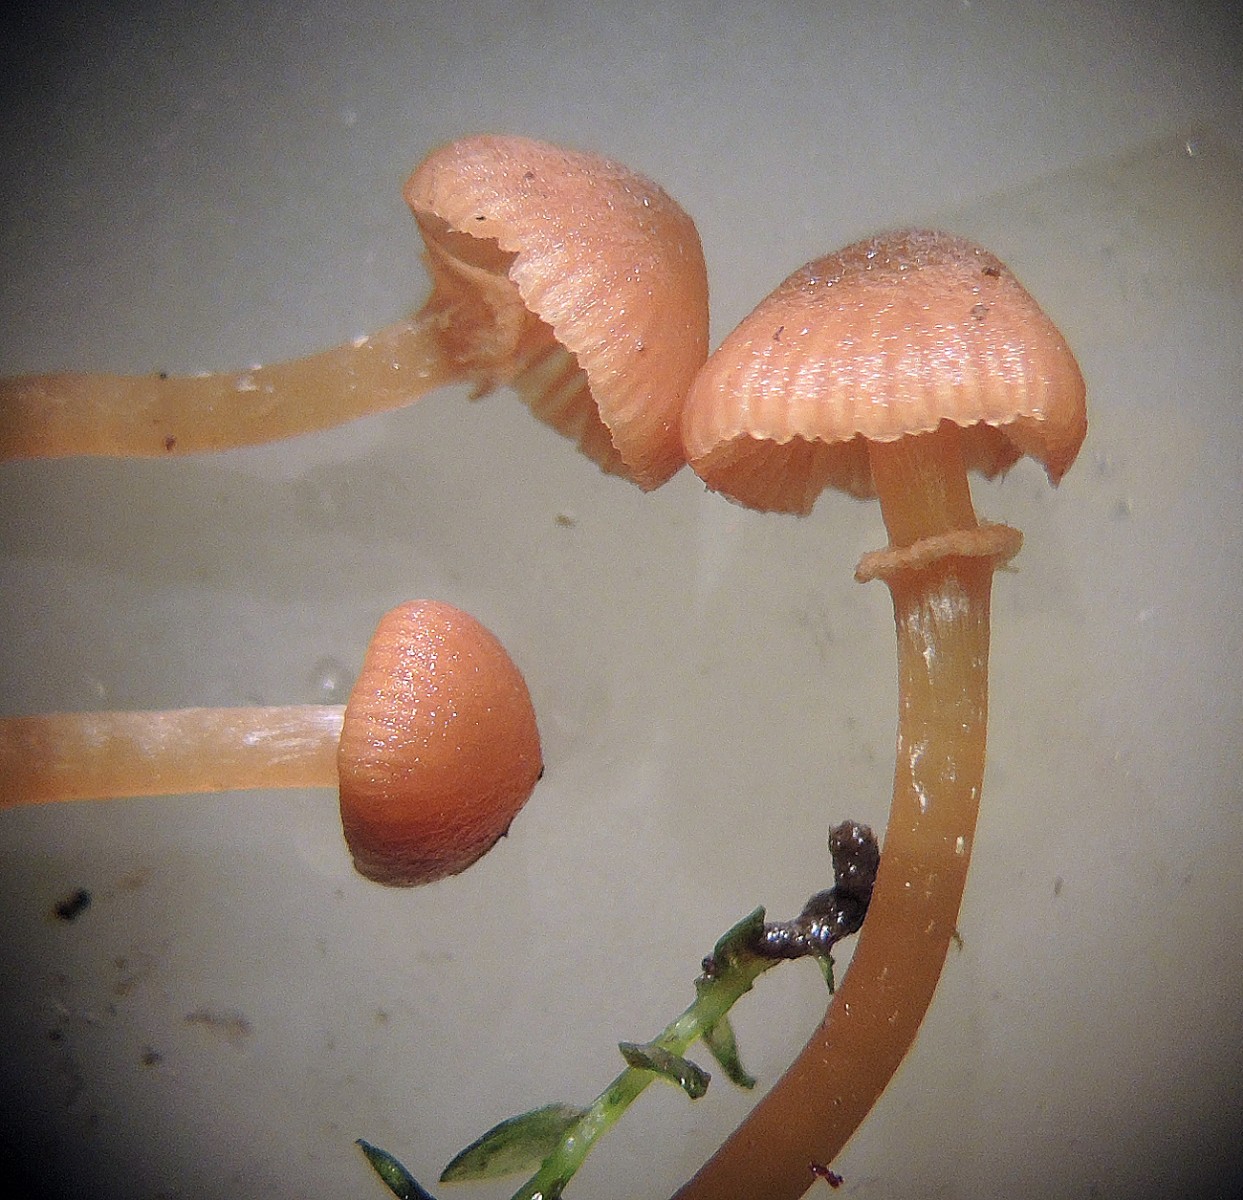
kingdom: Fungi
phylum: Basidiomycota
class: Agaricomycetes
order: Agaricales
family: Hymenogastraceae
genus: Galerina
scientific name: Galerina jaapii
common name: hvidbæltet hjelmhat
